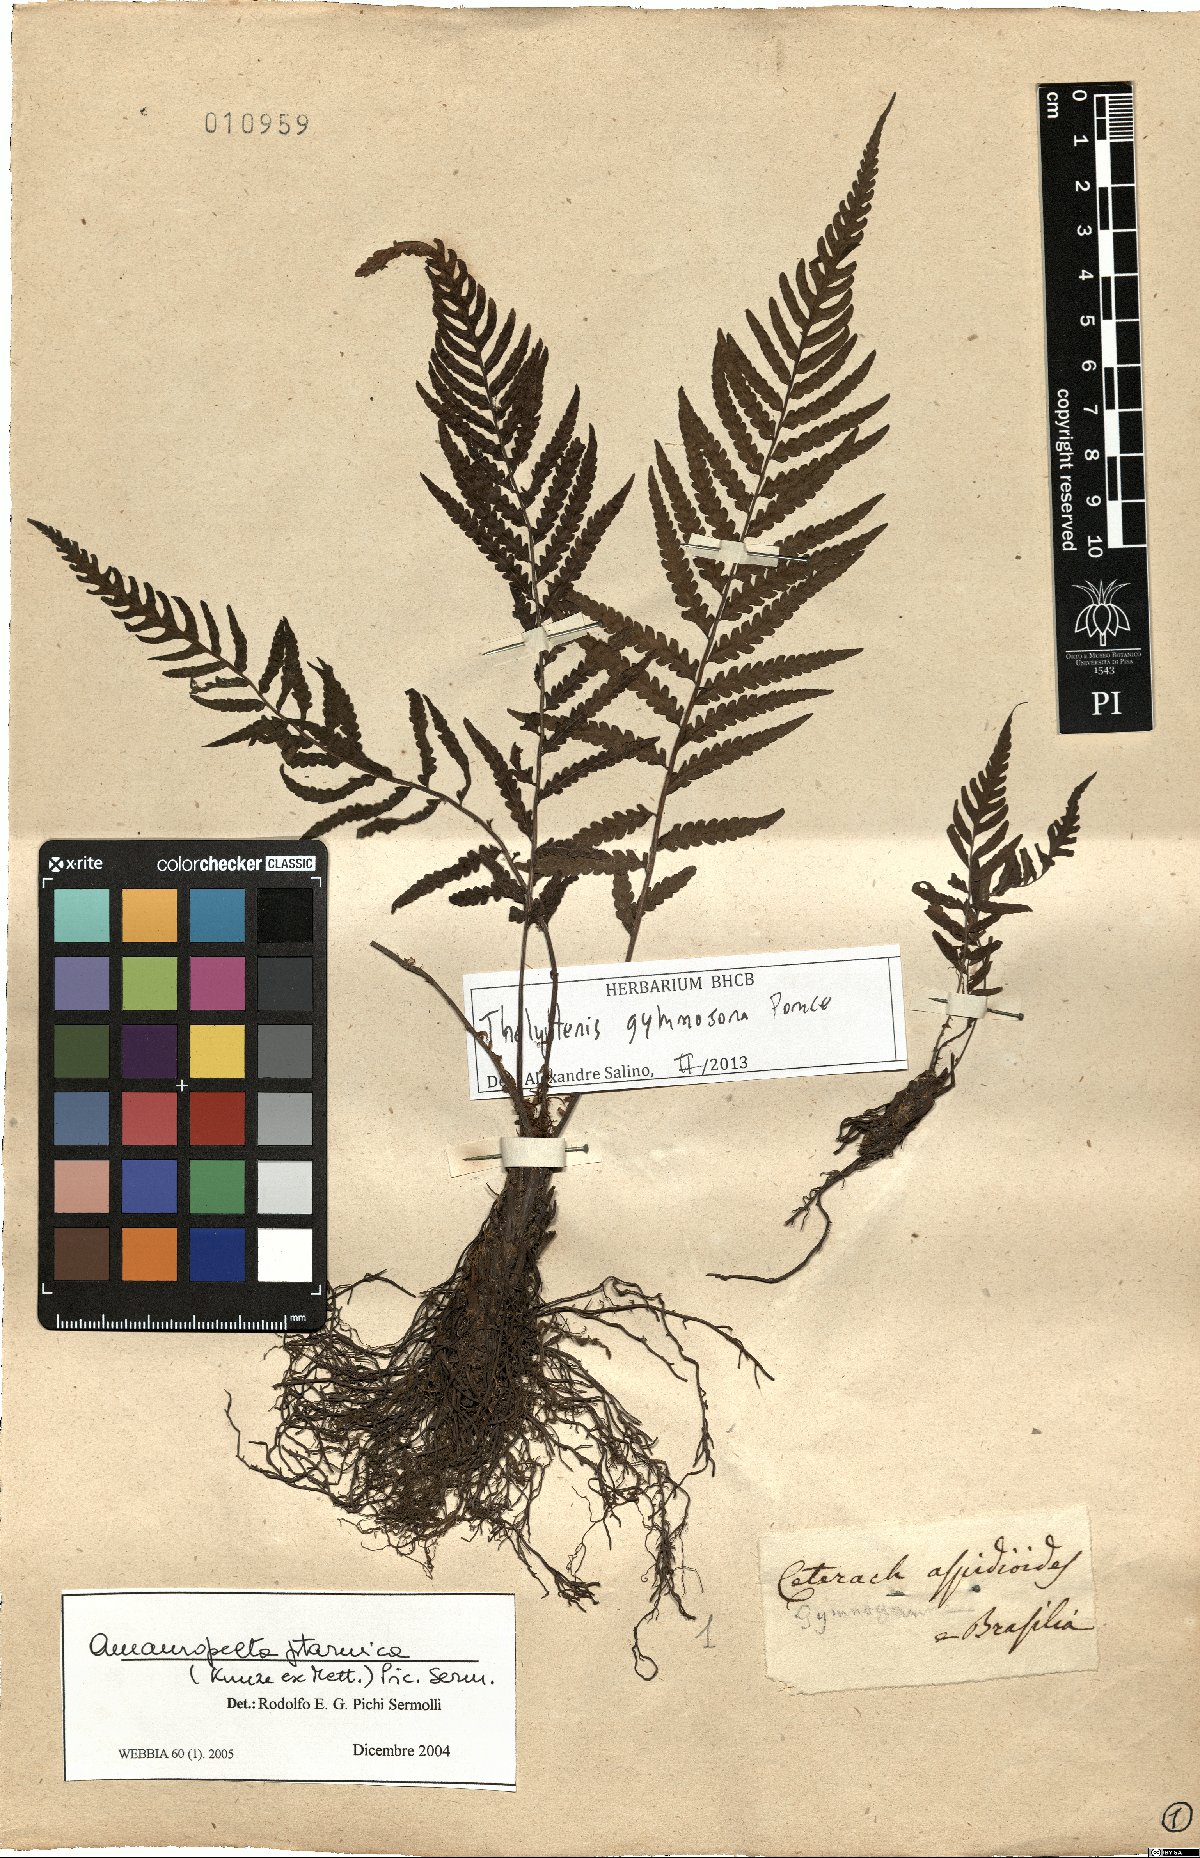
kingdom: Plantae
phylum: Tracheophyta
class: Polypodiopsida
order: Polypodiales
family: Thelypteridaceae
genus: Amauropelta
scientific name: Amauropelta saxicola
